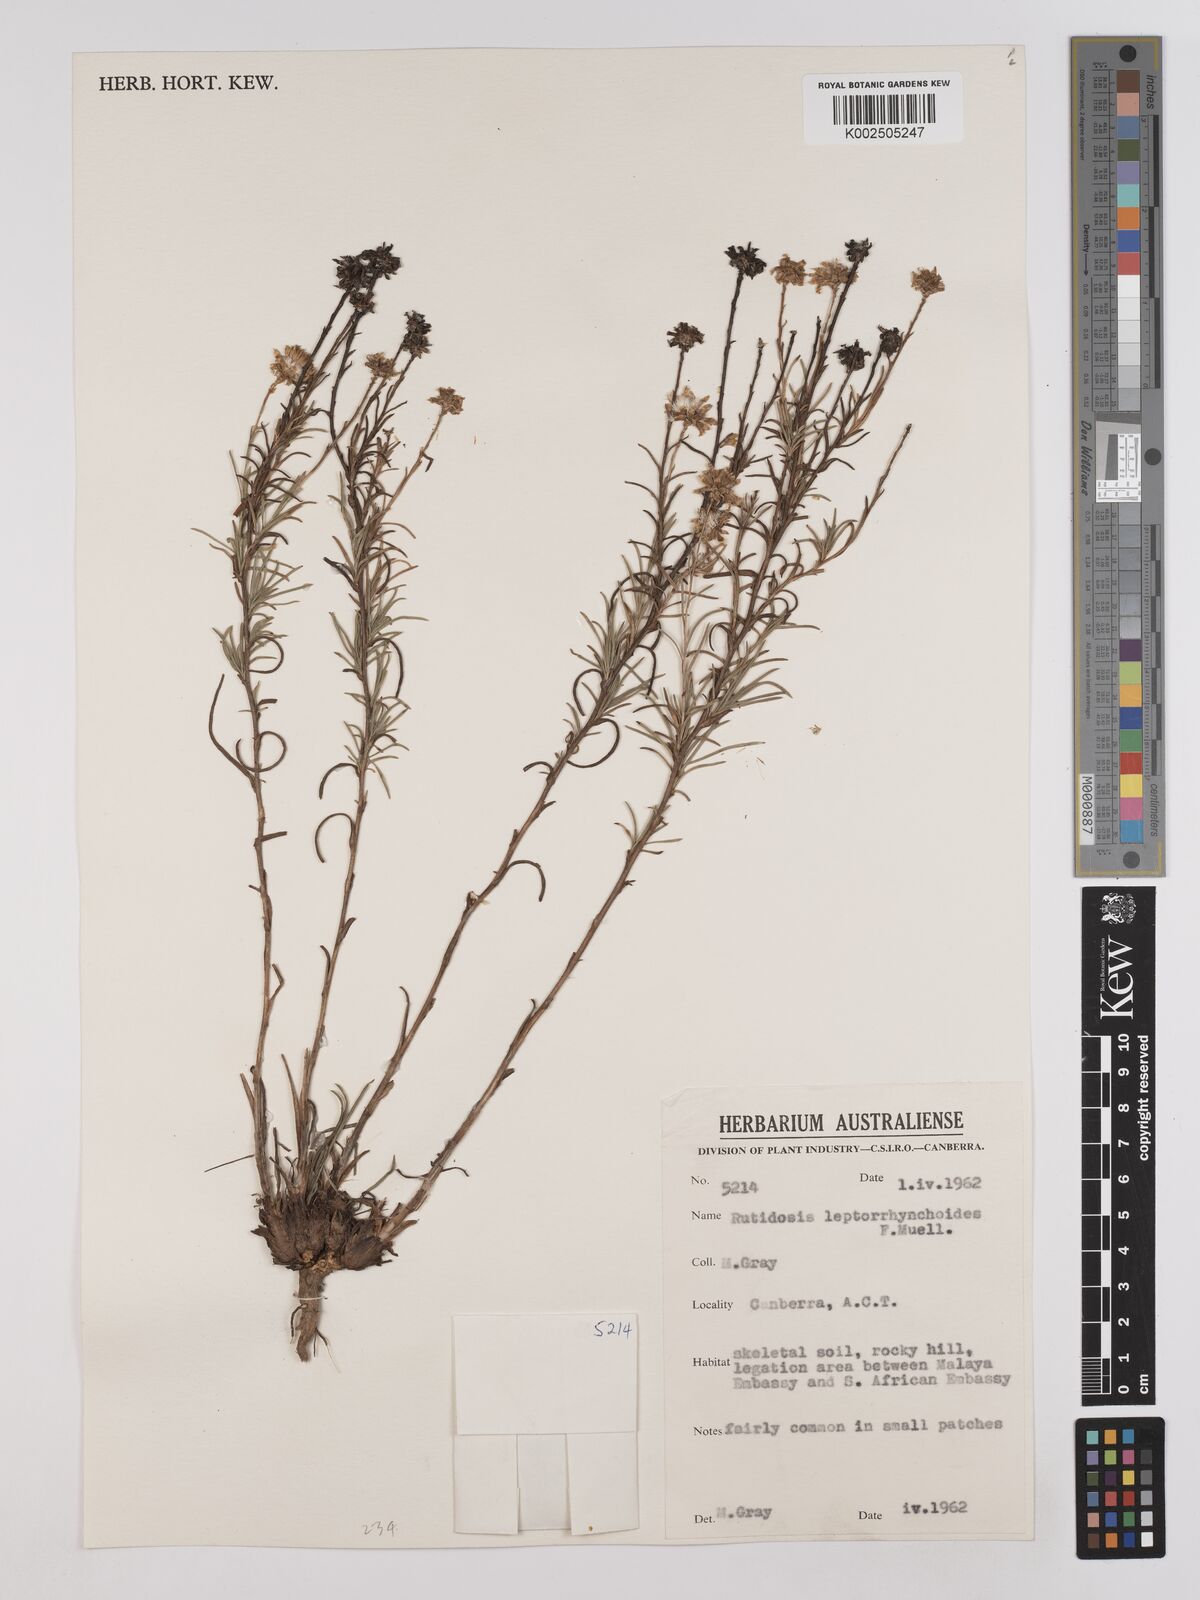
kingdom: Plantae
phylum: Tracheophyta
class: Magnoliopsida
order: Asterales
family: Asteraceae
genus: Rutidosis
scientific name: Rutidosis leptorrhynchoides
